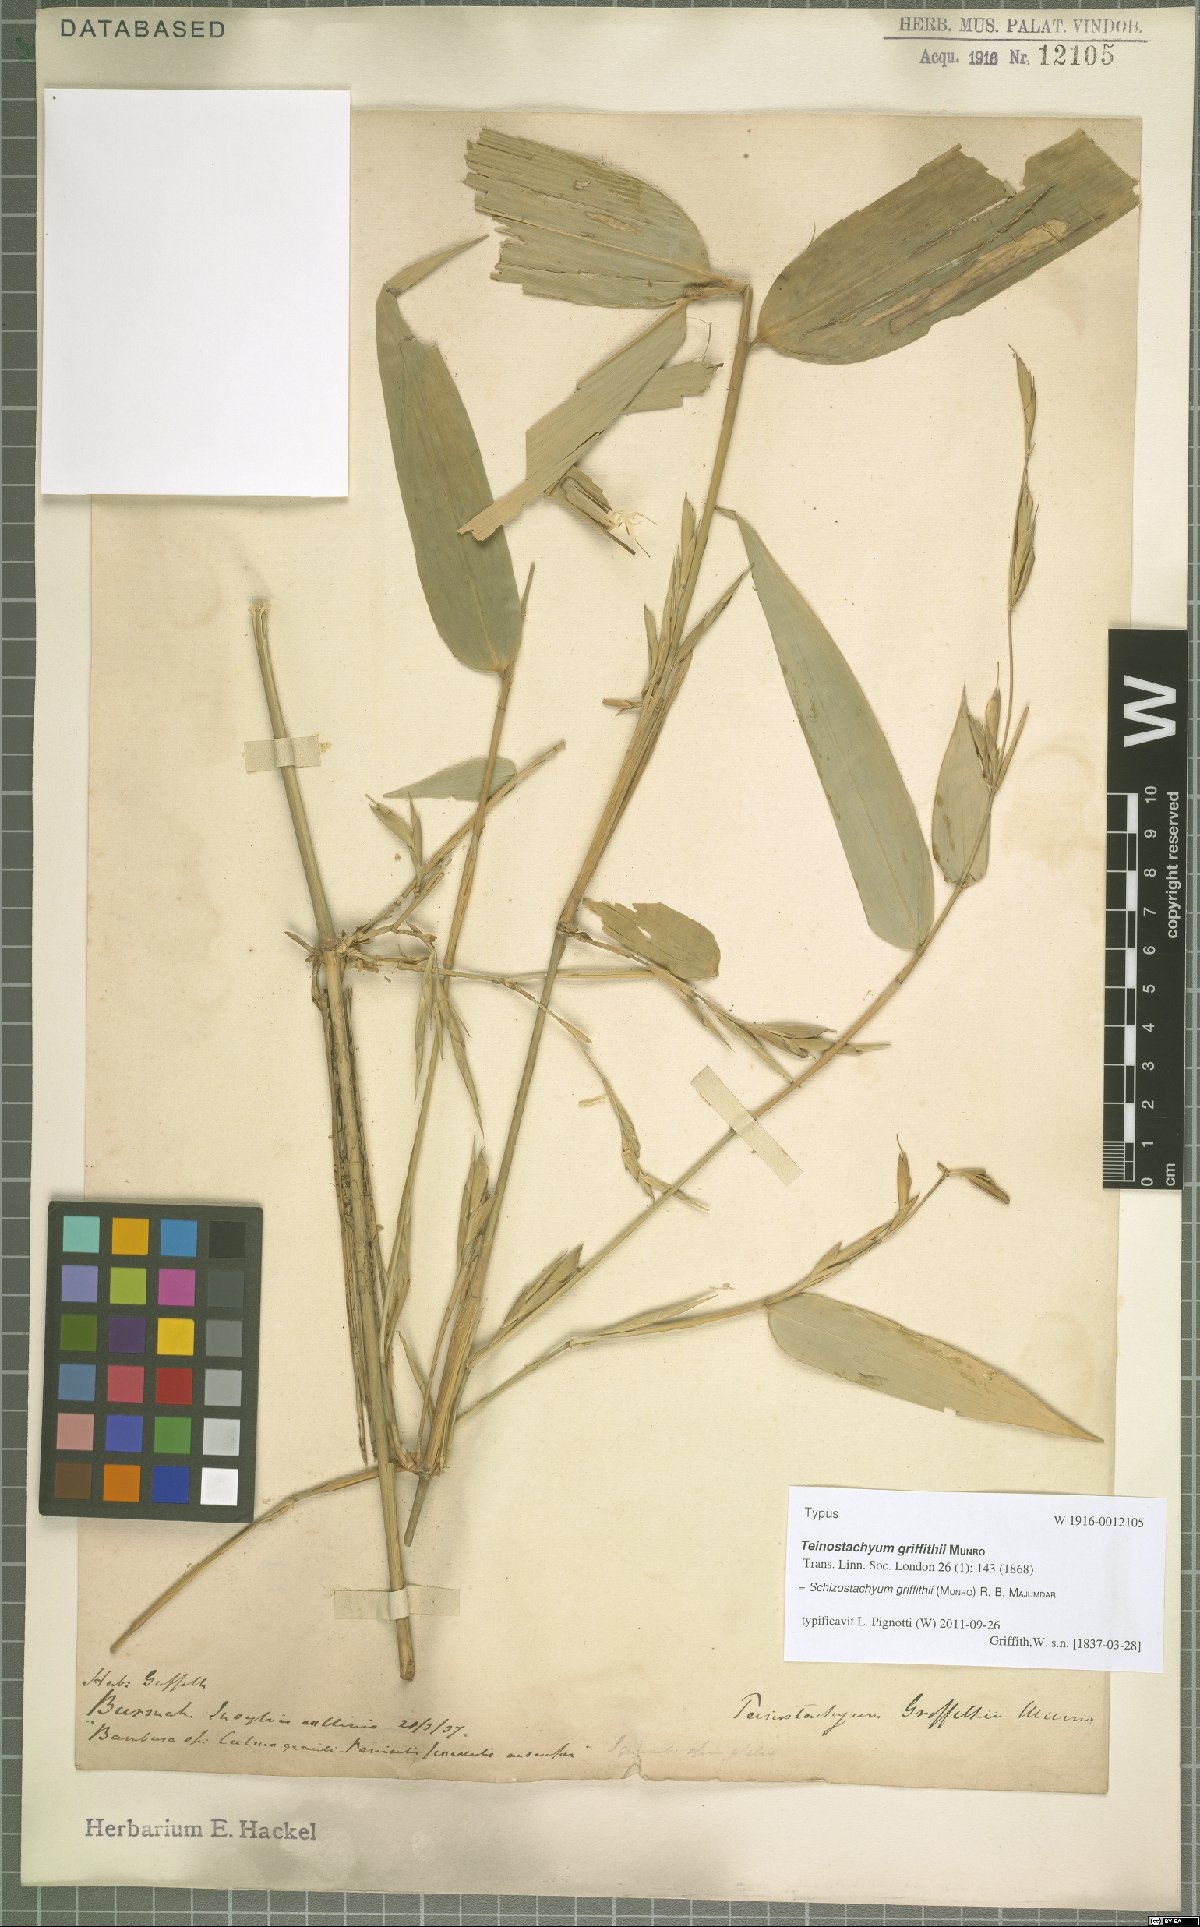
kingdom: Plantae
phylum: Tracheophyta
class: Liliopsida
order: Poales
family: Poaceae
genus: Schizostachyum
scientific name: Schizostachyum griffithii
